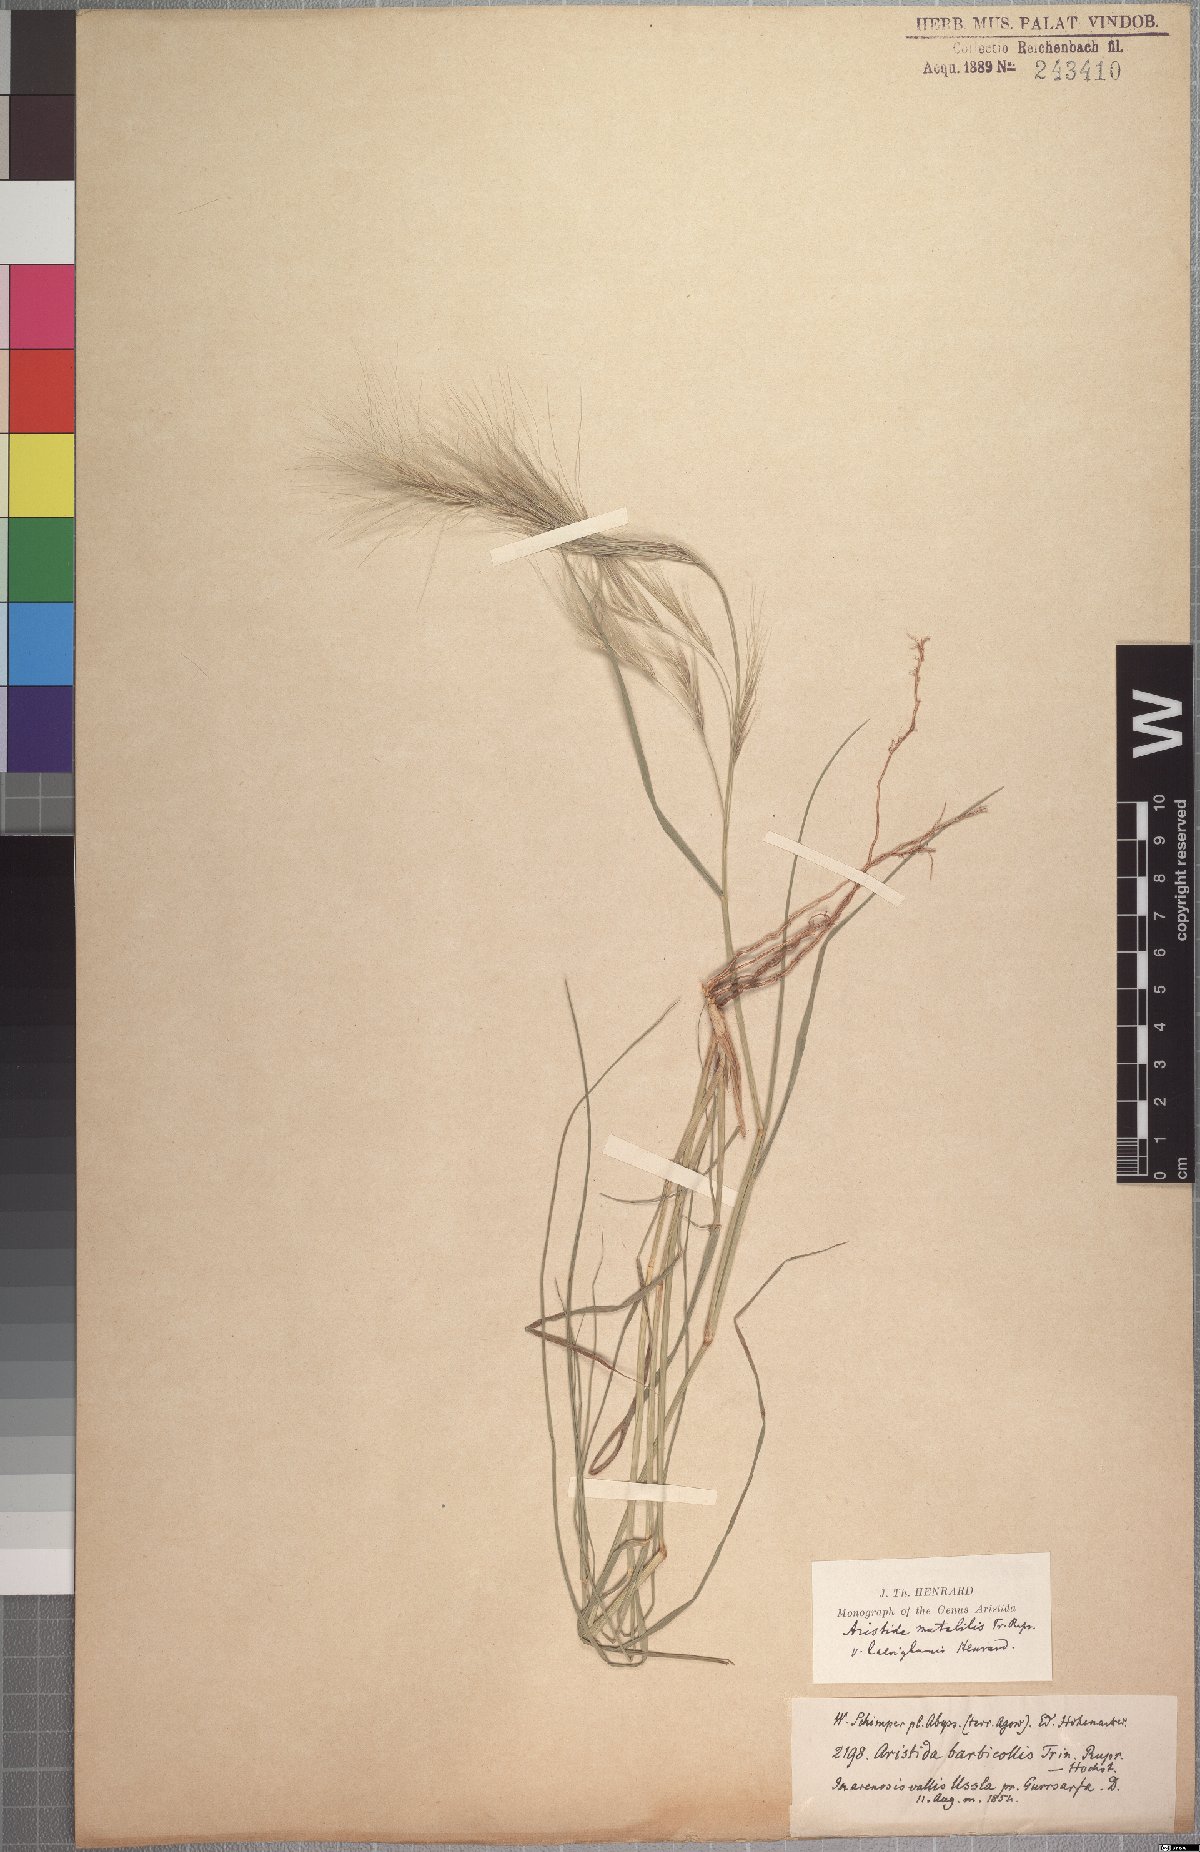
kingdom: Plantae
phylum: Tracheophyta
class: Liliopsida
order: Poales
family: Poaceae
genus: Aristida
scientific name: Aristida mutabilis
